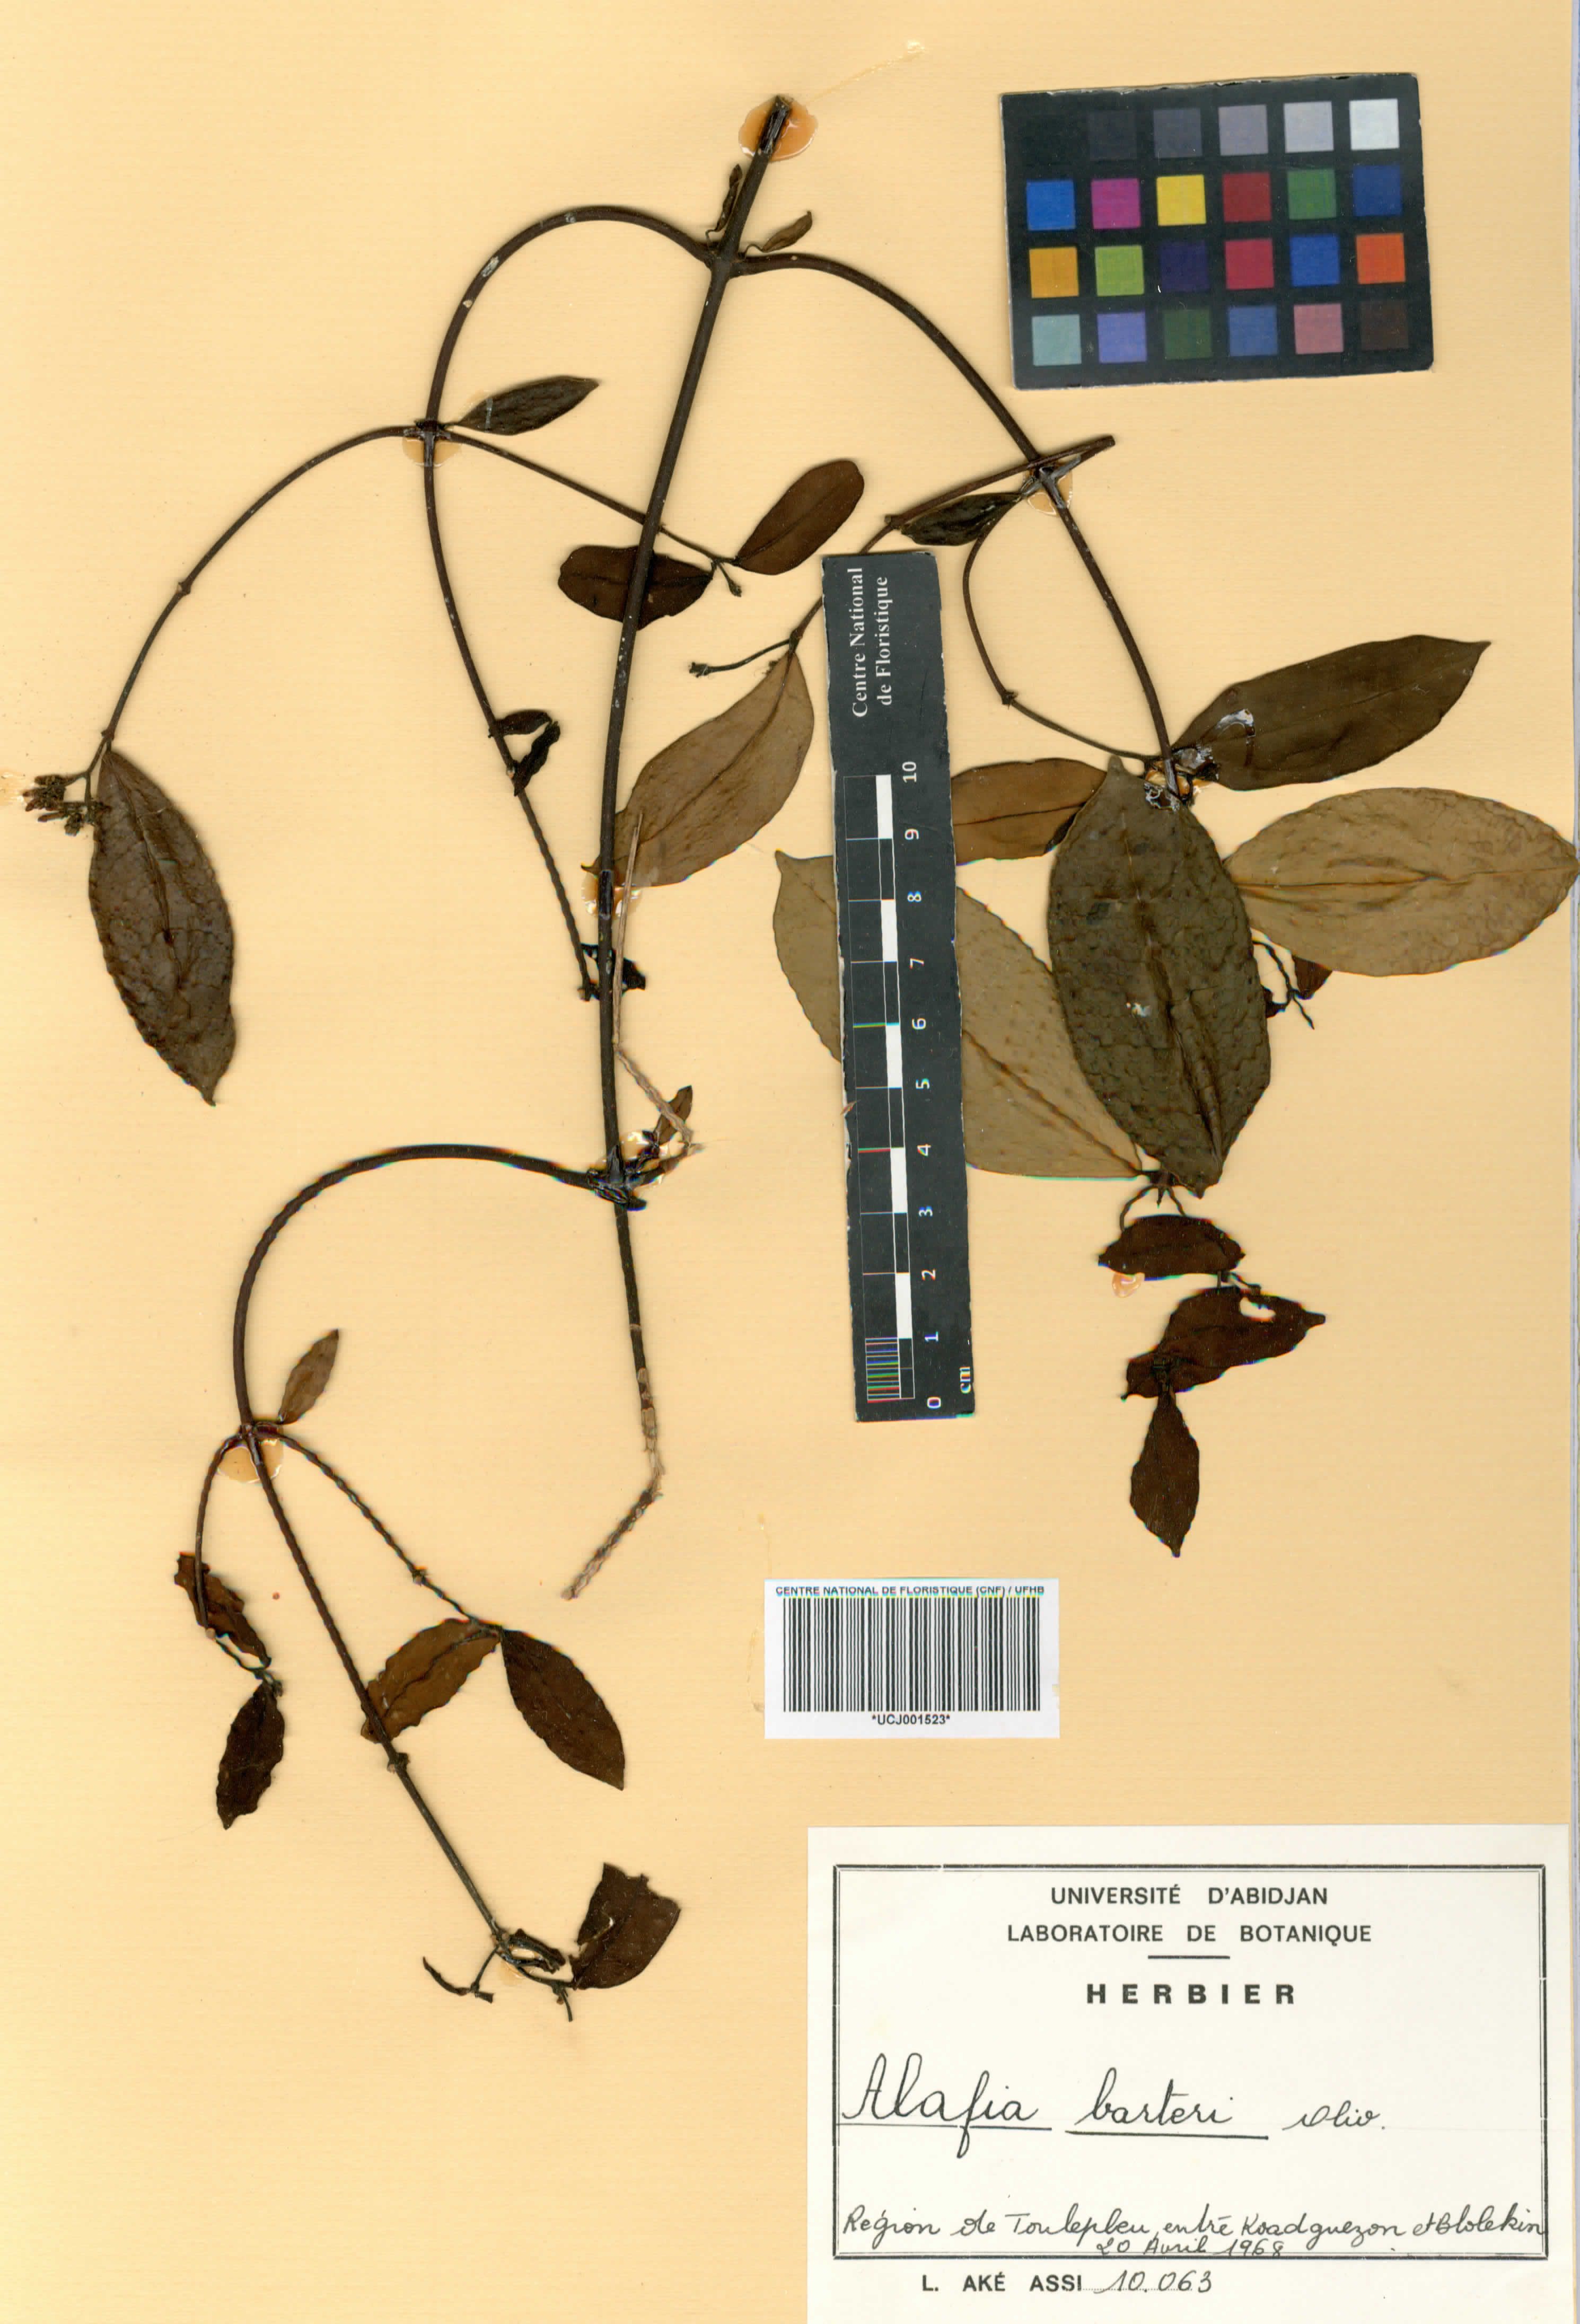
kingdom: Plantae
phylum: Tracheophyta
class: Magnoliopsida
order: Gentianales
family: Apocynaceae
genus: Alafia
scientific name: Alafia barteri
